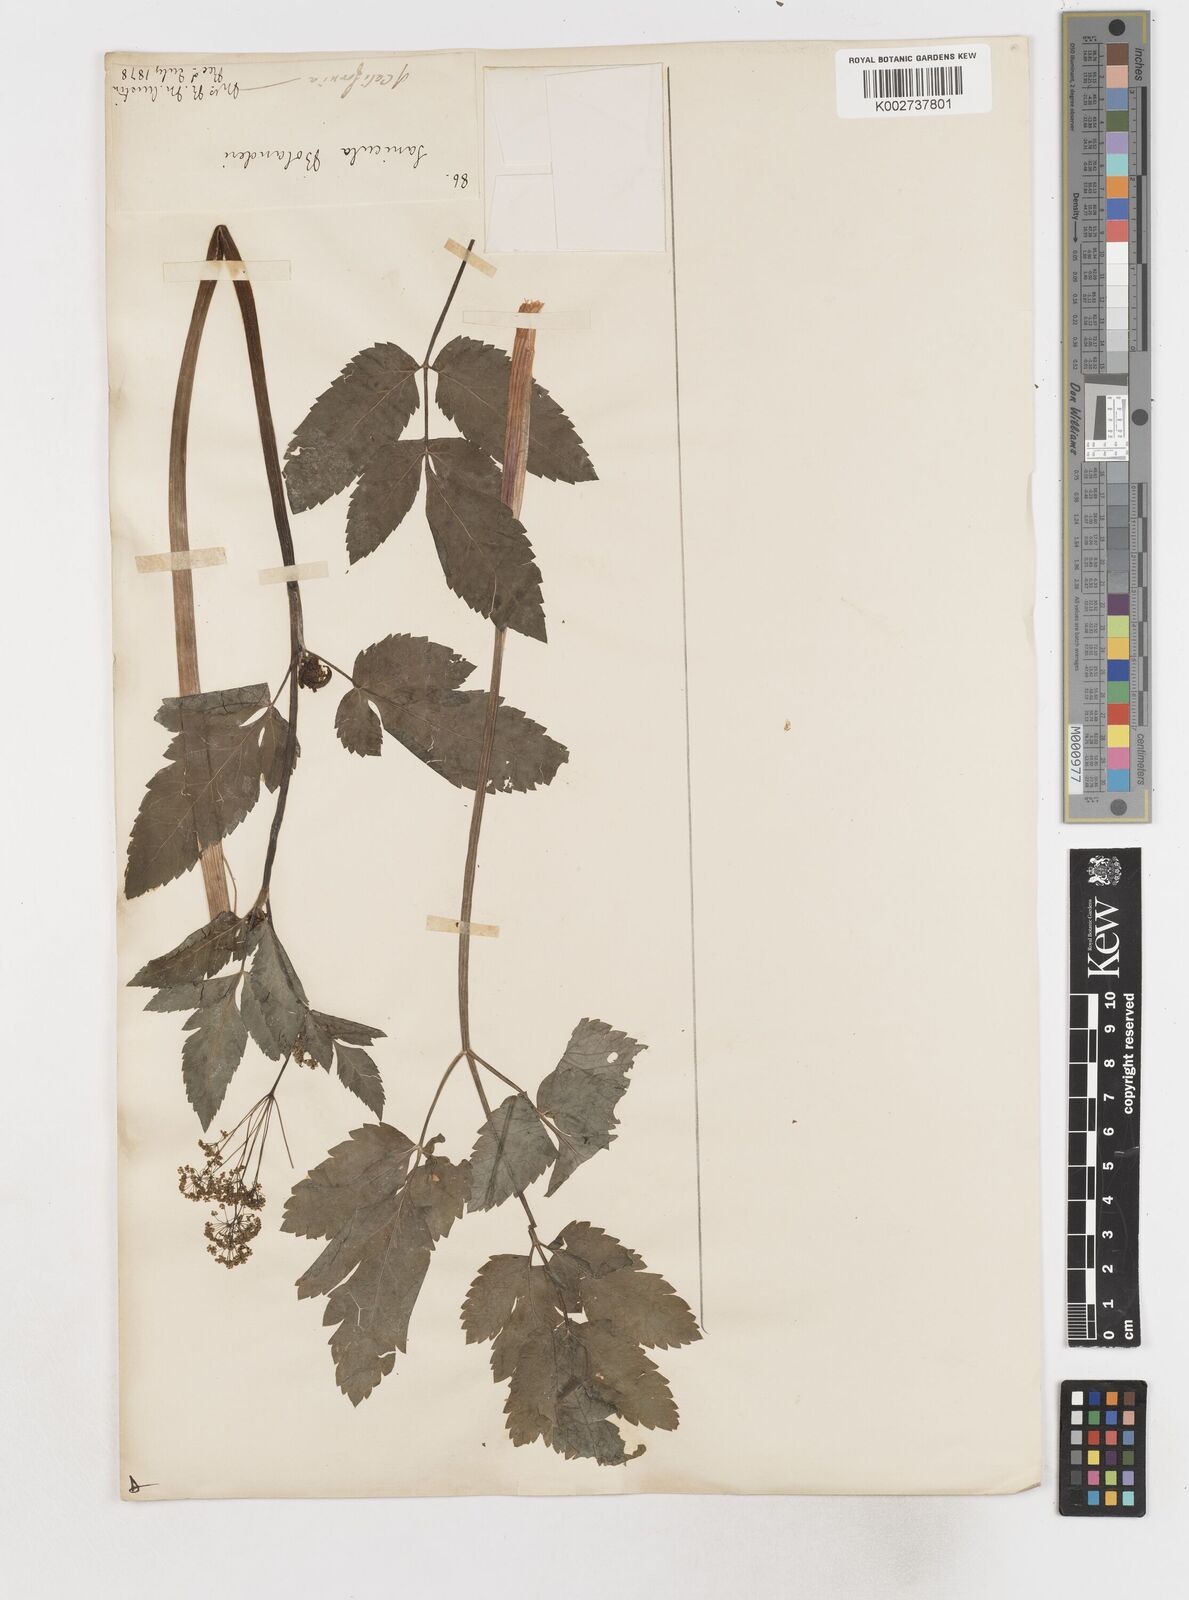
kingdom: Plantae
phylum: Tracheophyta
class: Magnoliopsida
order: Apiales
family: Apiaceae
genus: Osmorhiza
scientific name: Osmorhiza
